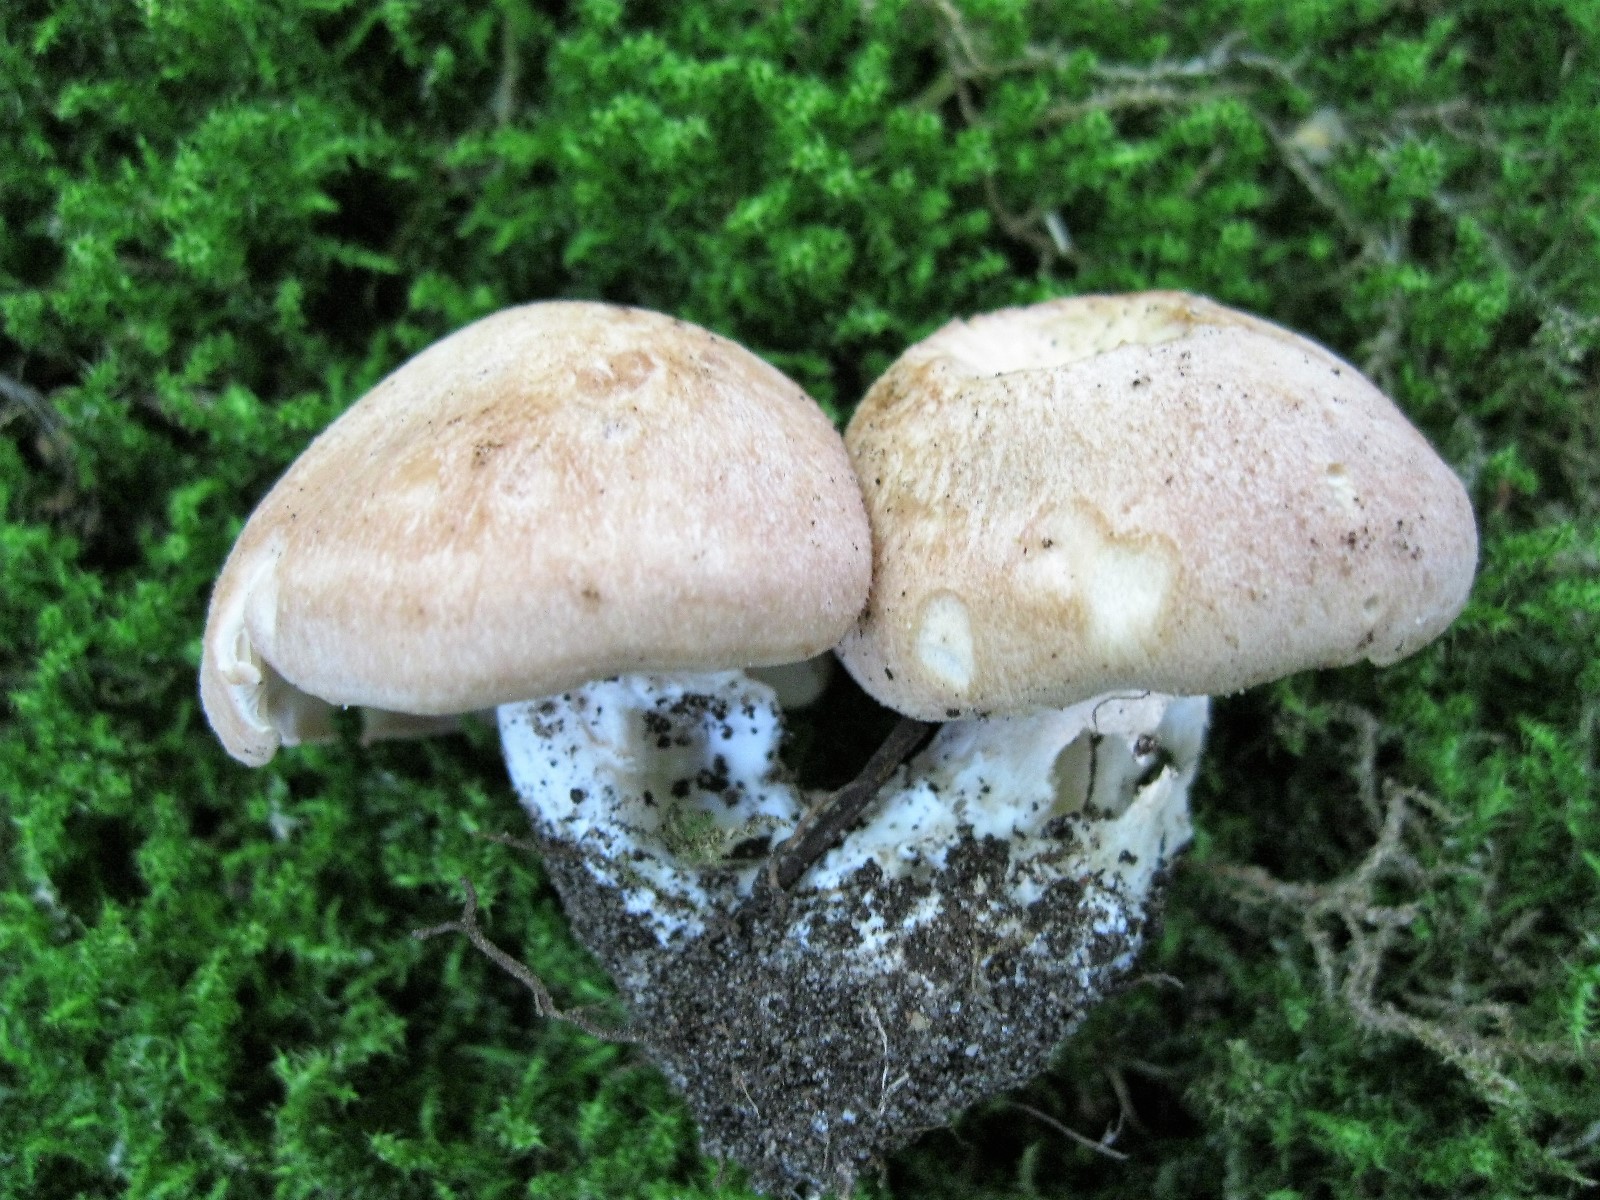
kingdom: Fungi
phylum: Basidiomycota
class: Agaricomycetes
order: Agaricales
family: Entolomataceae
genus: Clitopilus
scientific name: Clitopilus geminus
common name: kødfarvet troldhat
